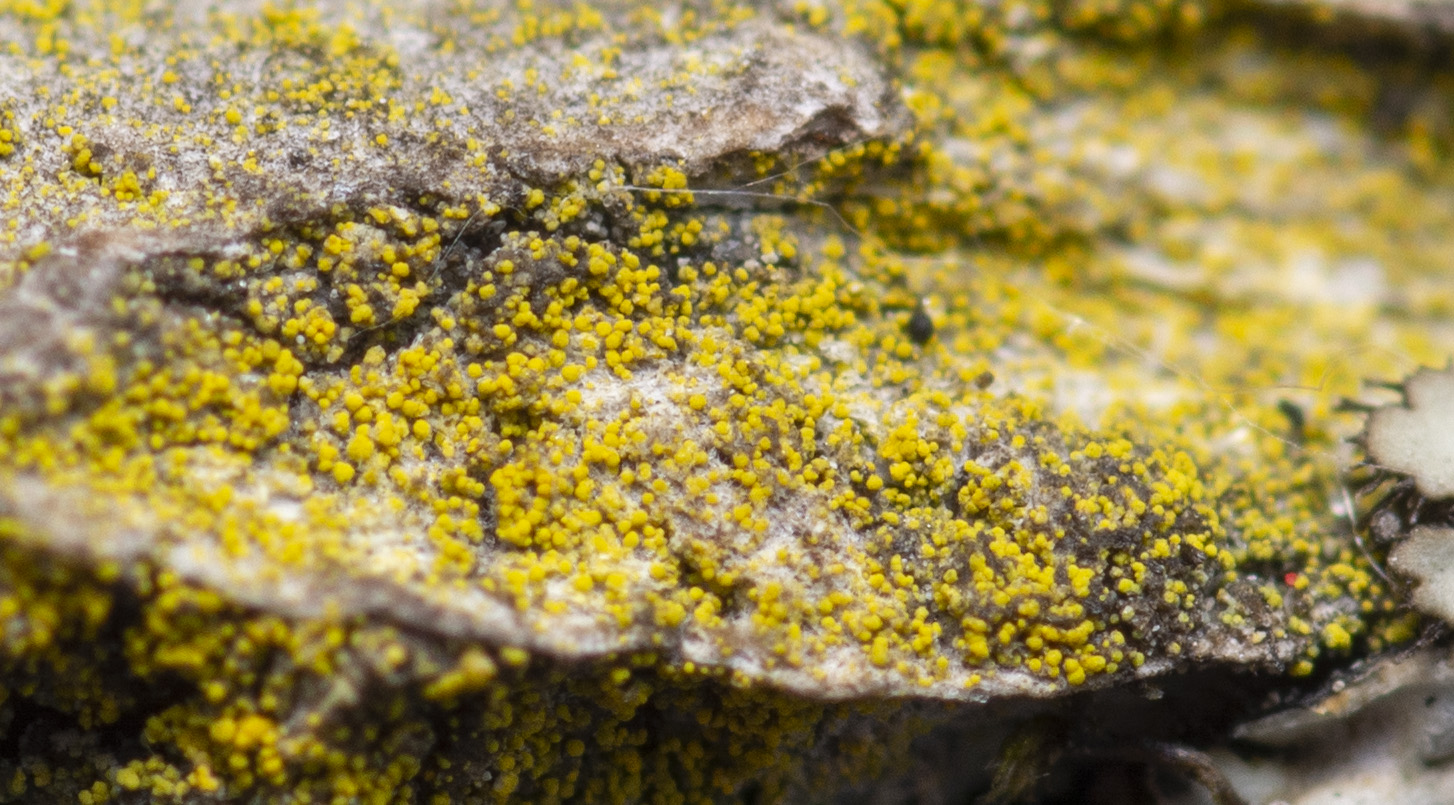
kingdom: Fungi
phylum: Ascomycota
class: Candelariomycetes
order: Candelariales
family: Candelariaceae
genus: Candelariella
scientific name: Candelariella xanthostigma
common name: kornet æggeblommelav
